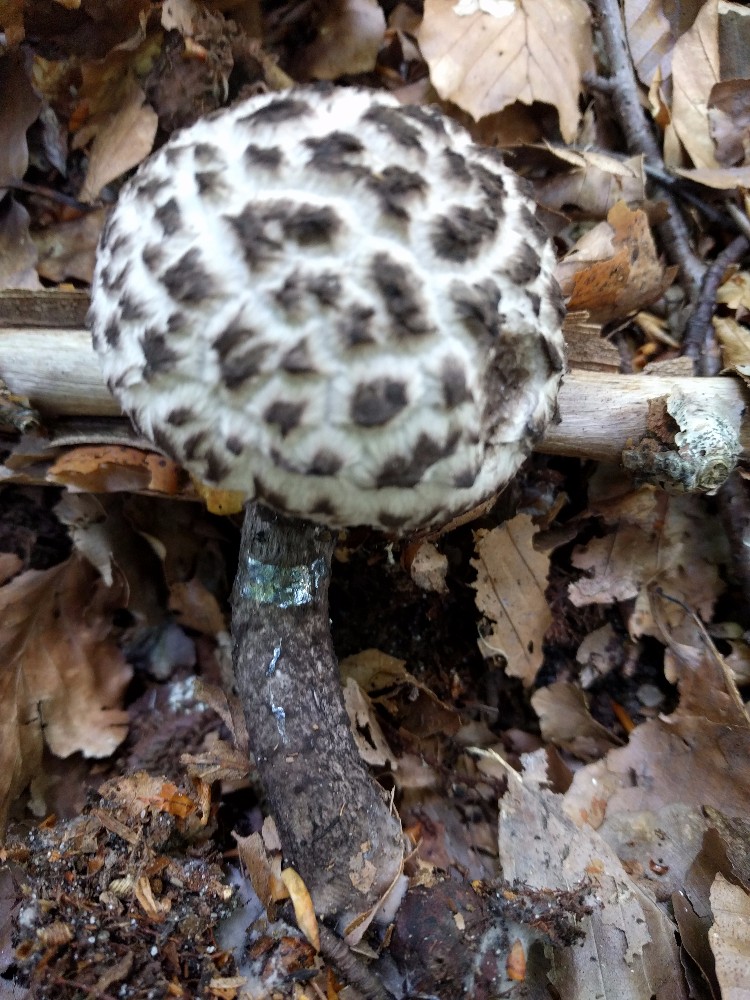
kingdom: Fungi
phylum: Basidiomycota
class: Agaricomycetes
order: Boletales
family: Boletaceae
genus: Strobilomyces
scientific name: Strobilomyces strobilaceus
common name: koglerørhat
